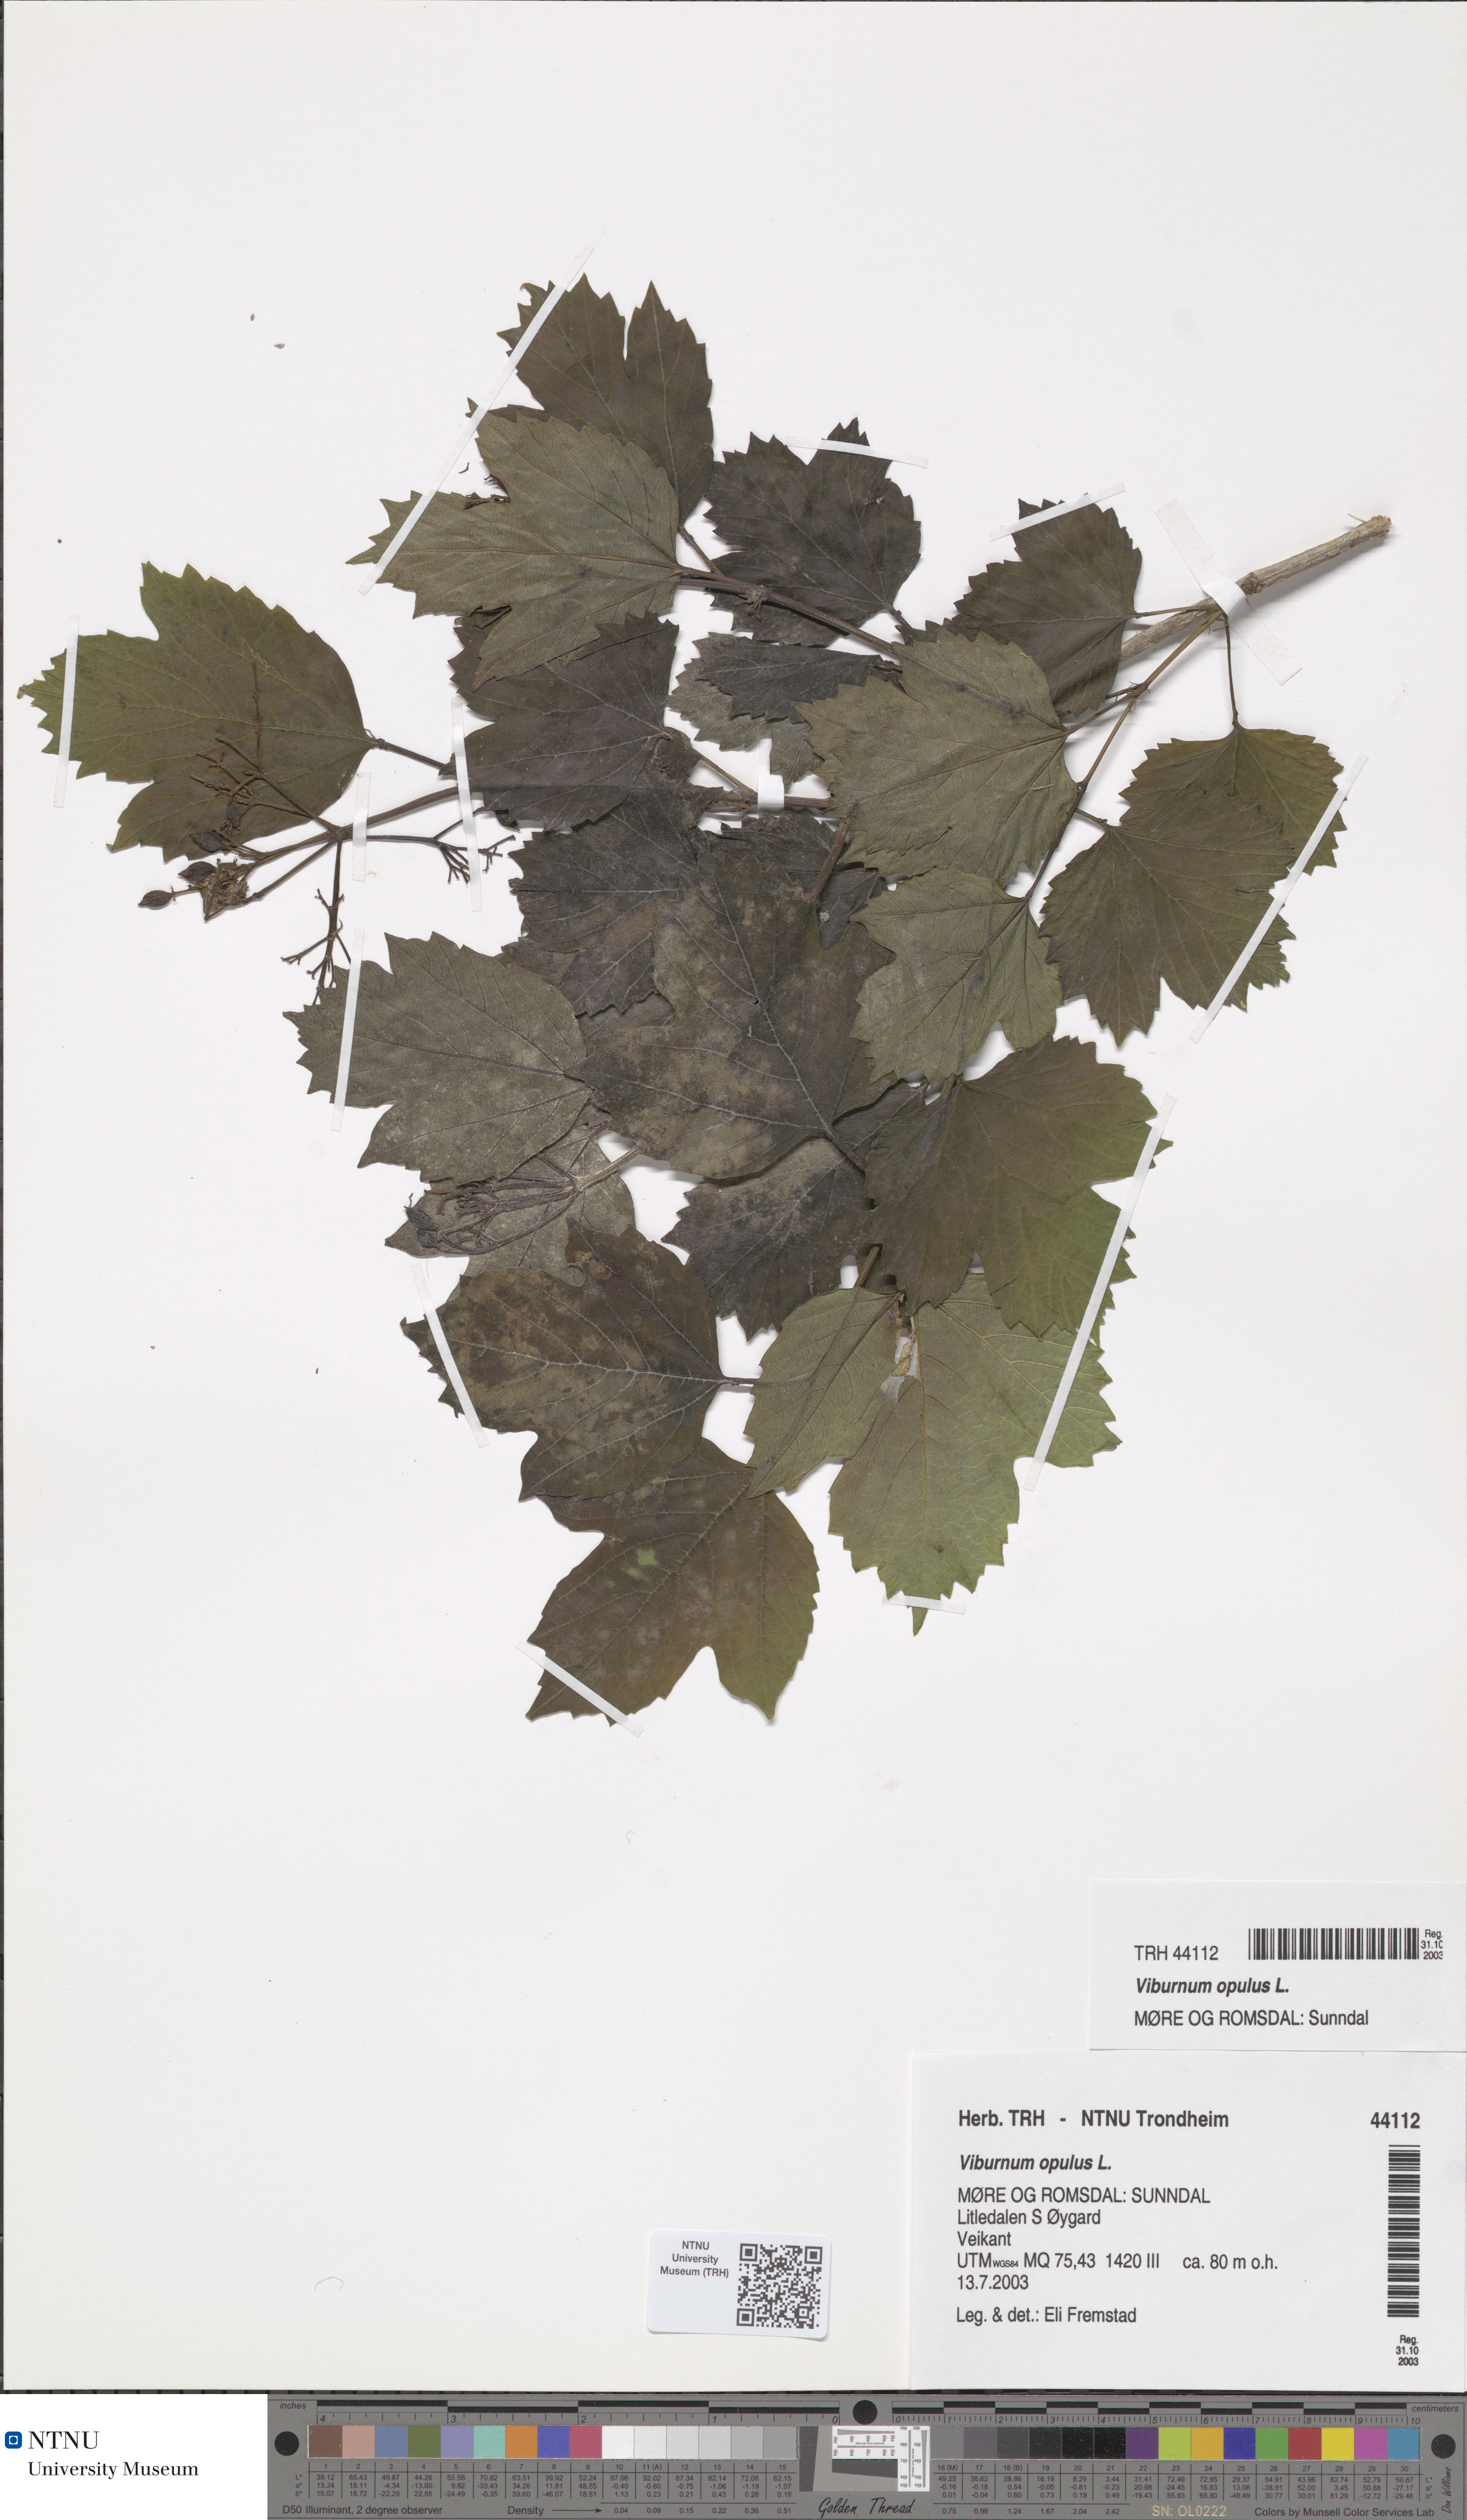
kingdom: Plantae
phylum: Tracheophyta
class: Magnoliopsida
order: Dipsacales
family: Viburnaceae
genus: Viburnum
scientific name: Viburnum opulus
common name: Guelder-rose
